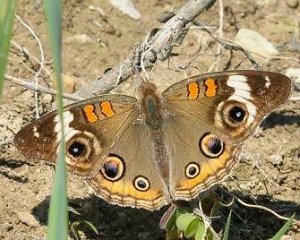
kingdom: Animalia
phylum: Arthropoda
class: Insecta
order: Lepidoptera
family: Nymphalidae
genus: Junonia
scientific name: Junonia coenia
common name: Common Buckeye
